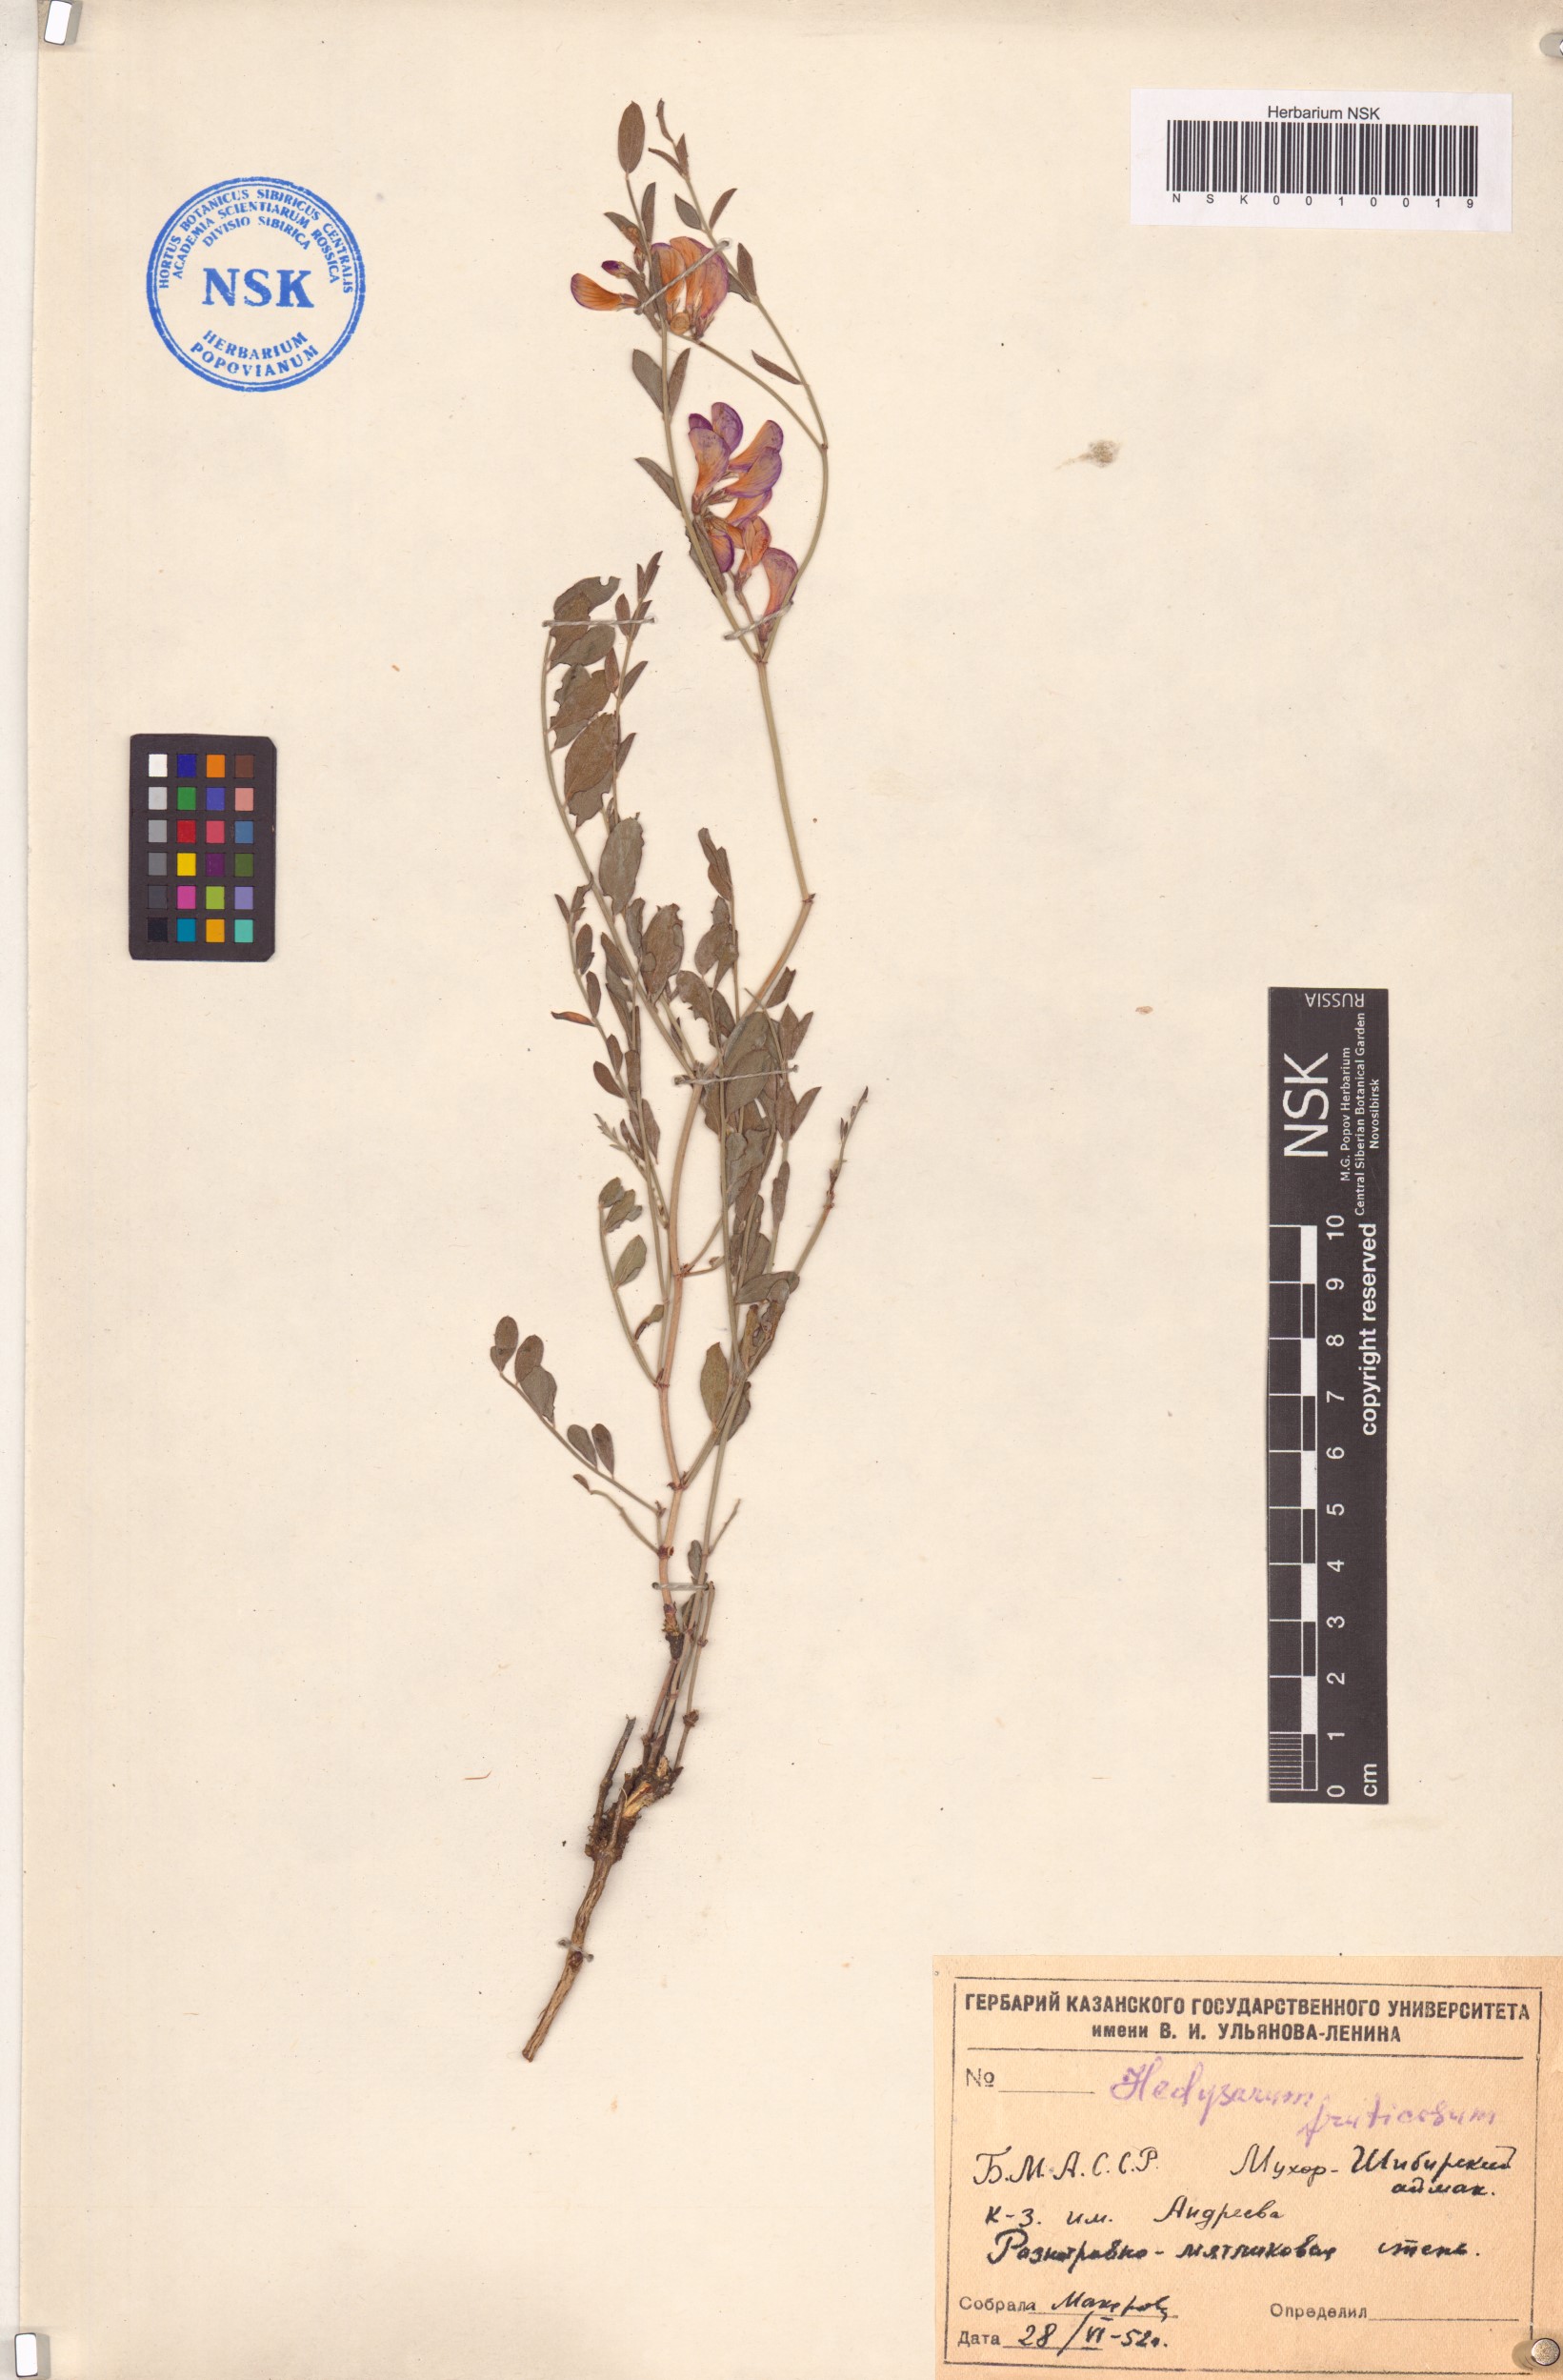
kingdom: Plantae
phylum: Tracheophyta
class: Magnoliopsida
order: Fabales
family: Fabaceae
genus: Corethrodendron
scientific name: Corethrodendron fruticosum
